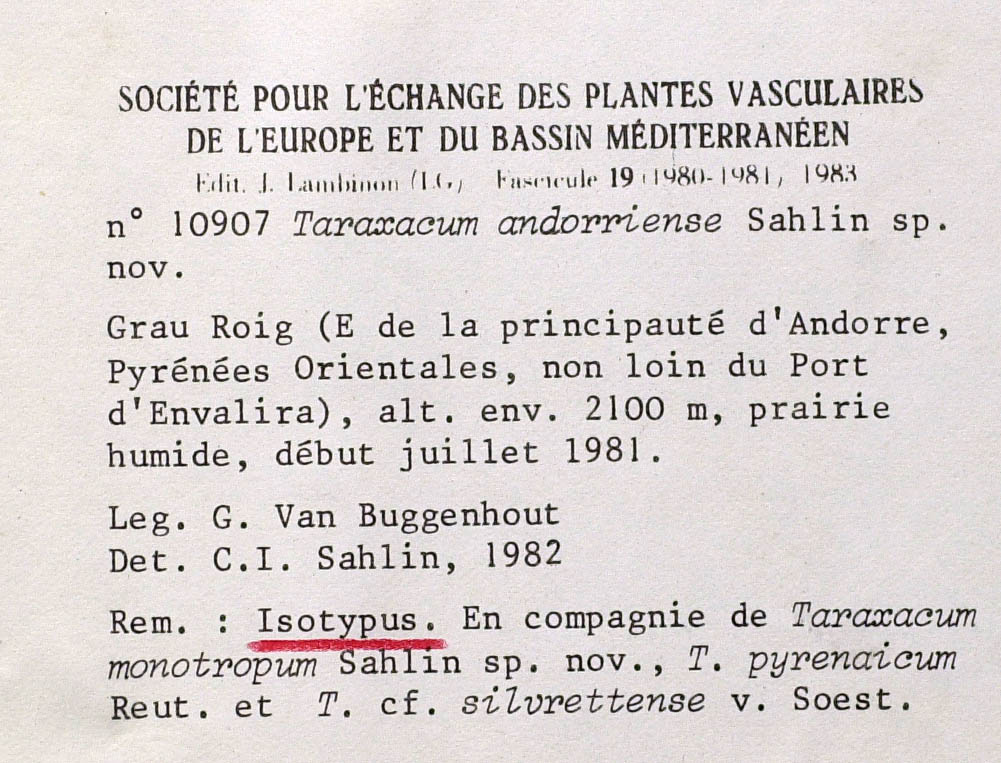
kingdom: Plantae
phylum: Tracheophyta
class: Magnoliopsida
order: Asterales
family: Asteraceae
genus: Taraxacum
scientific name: Taraxacum andorriense
